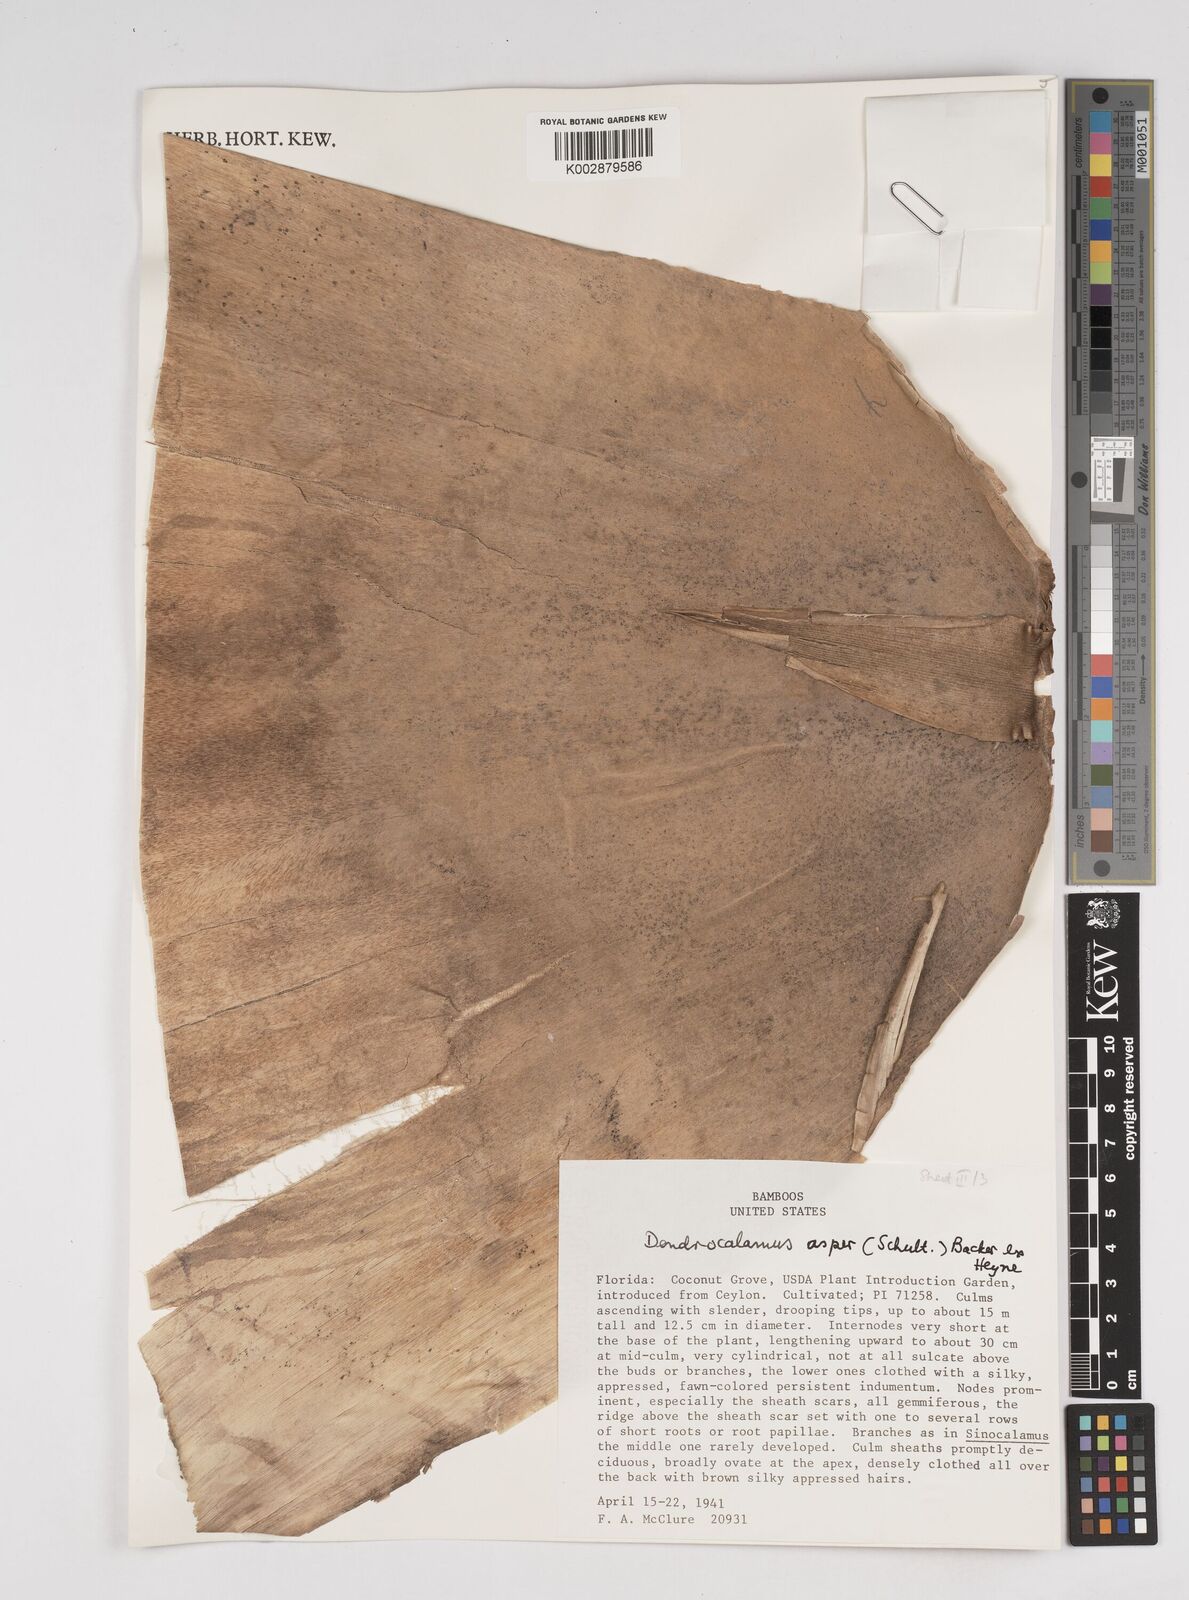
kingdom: Plantae
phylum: Tracheophyta
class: Liliopsida
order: Poales
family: Poaceae
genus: Dendrocalamus
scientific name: Dendrocalamus asper
